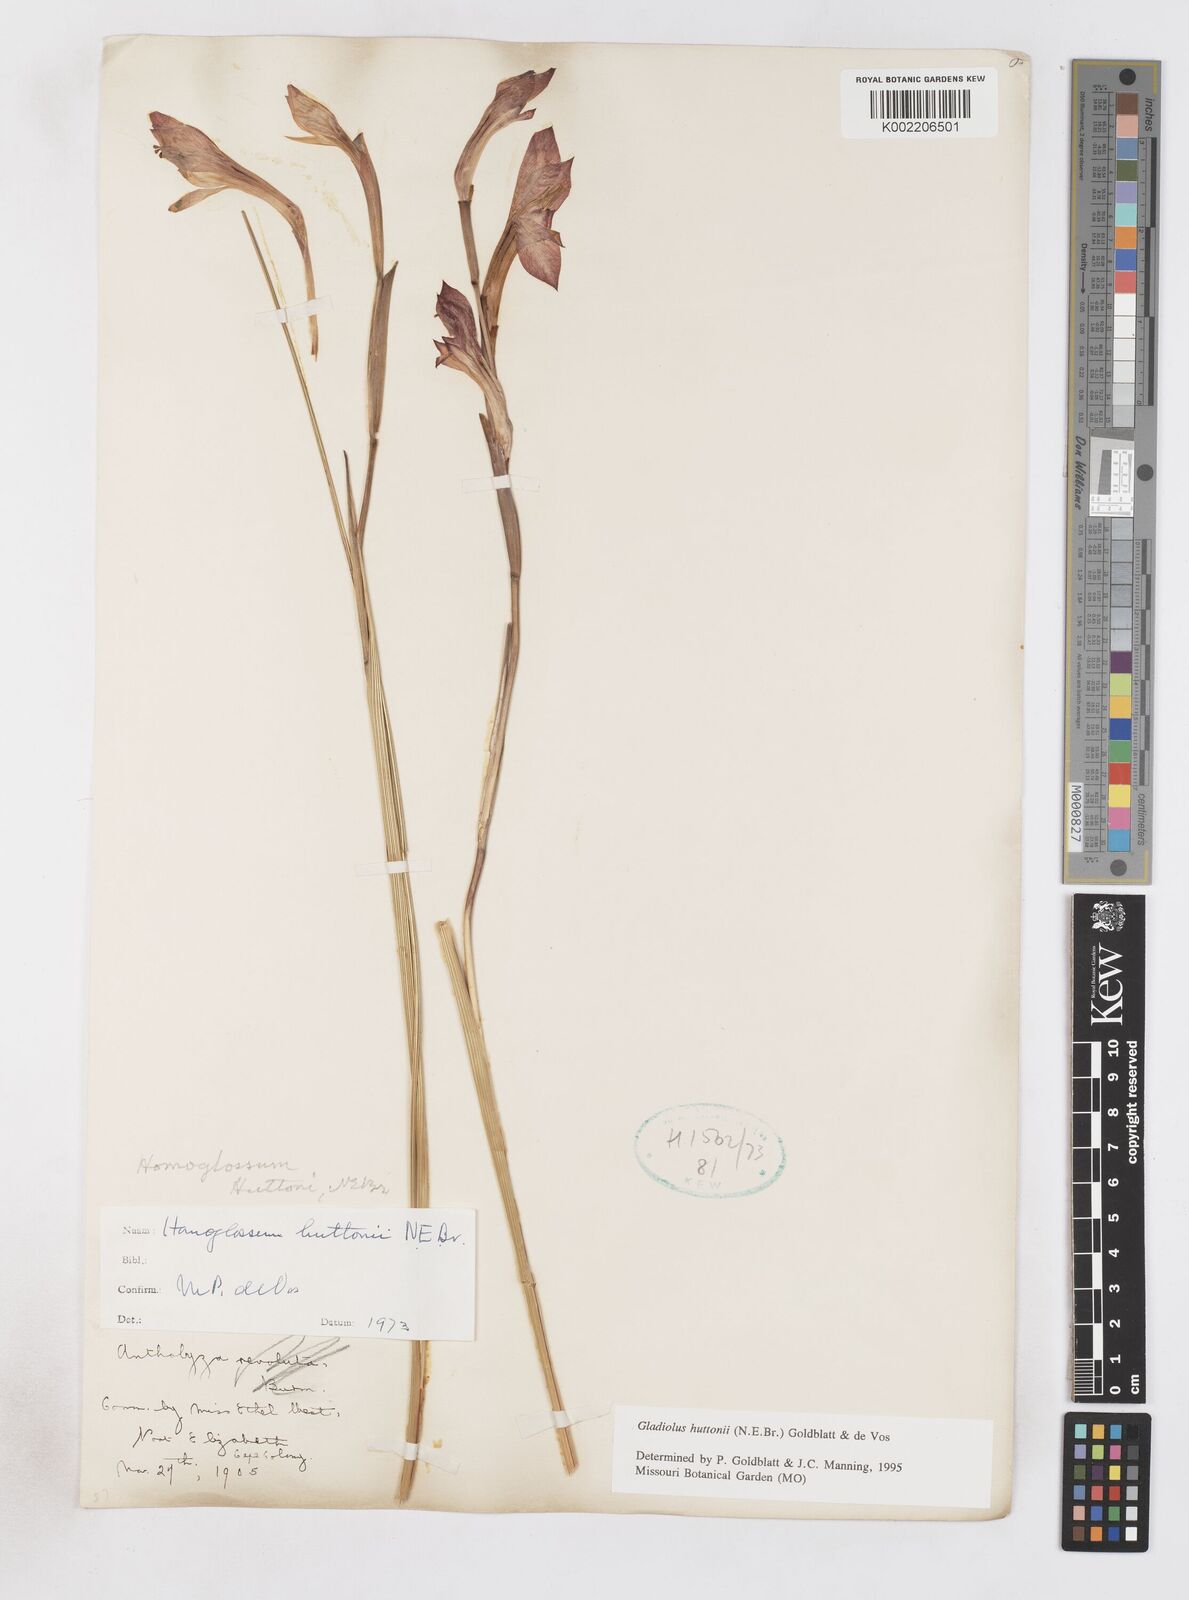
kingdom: Plantae
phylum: Tracheophyta
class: Liliopsida
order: Asparagales
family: Iridaceae
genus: Gladiolus
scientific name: Gladiolus huttonii
